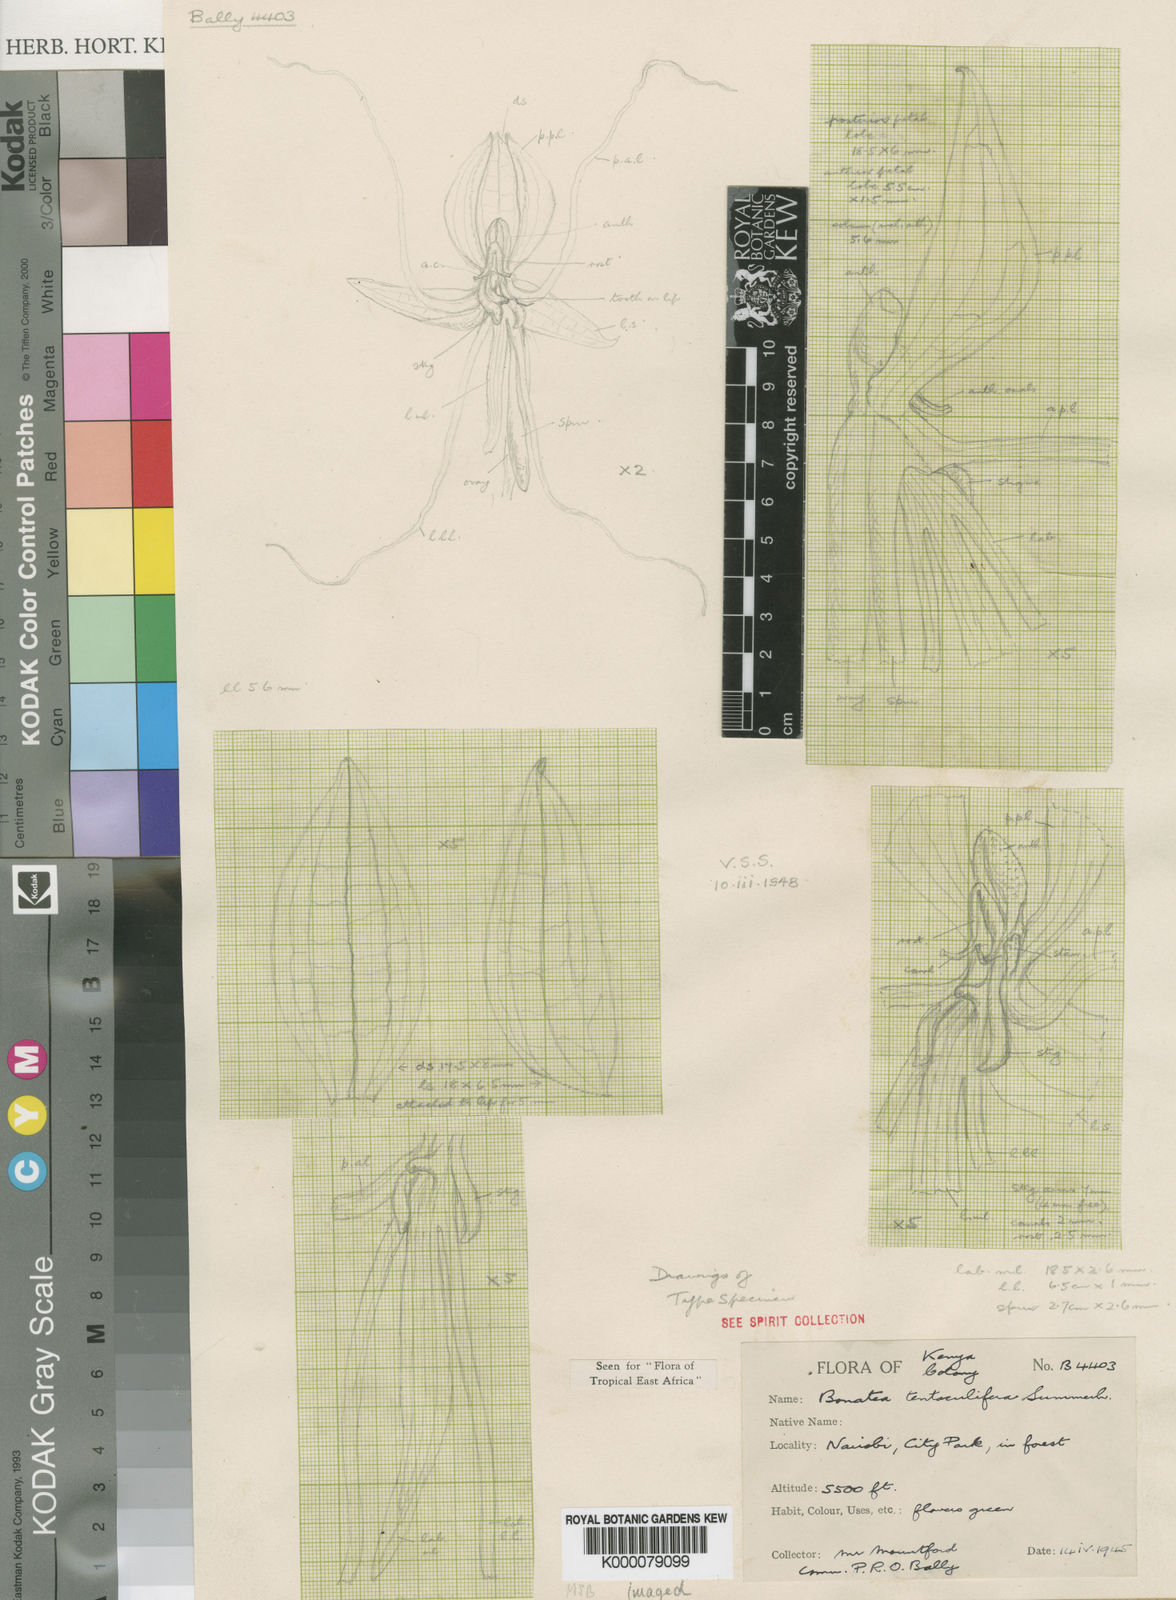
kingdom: Plantae
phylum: Tracheophyta
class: Liliopsida
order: Asparagales
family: Orchidaceae
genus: Habenaria
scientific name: Habenaria bonateoides
